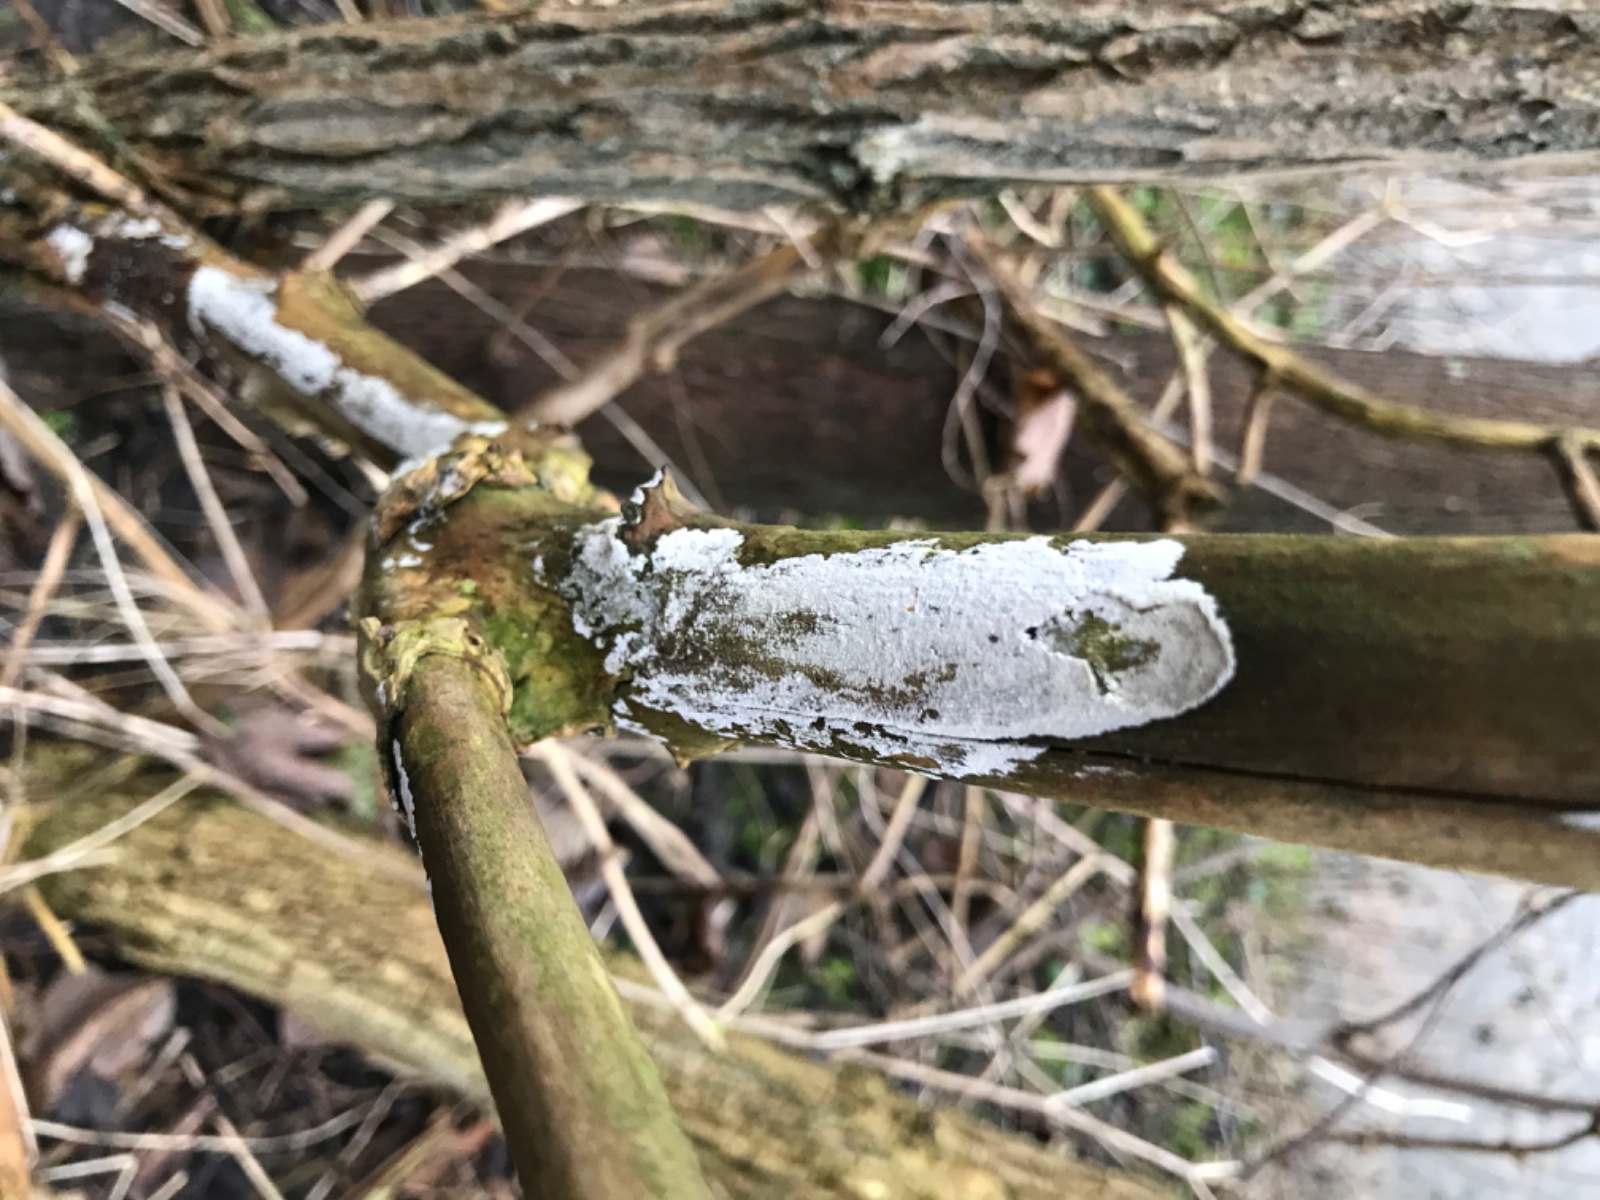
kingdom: Fungi
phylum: Basidiomycota
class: Agaricomycetes
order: Corticiales
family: Corticiaceae
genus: Lyomyces
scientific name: Lyomyces sambuci
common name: almindelig hyldehinde
